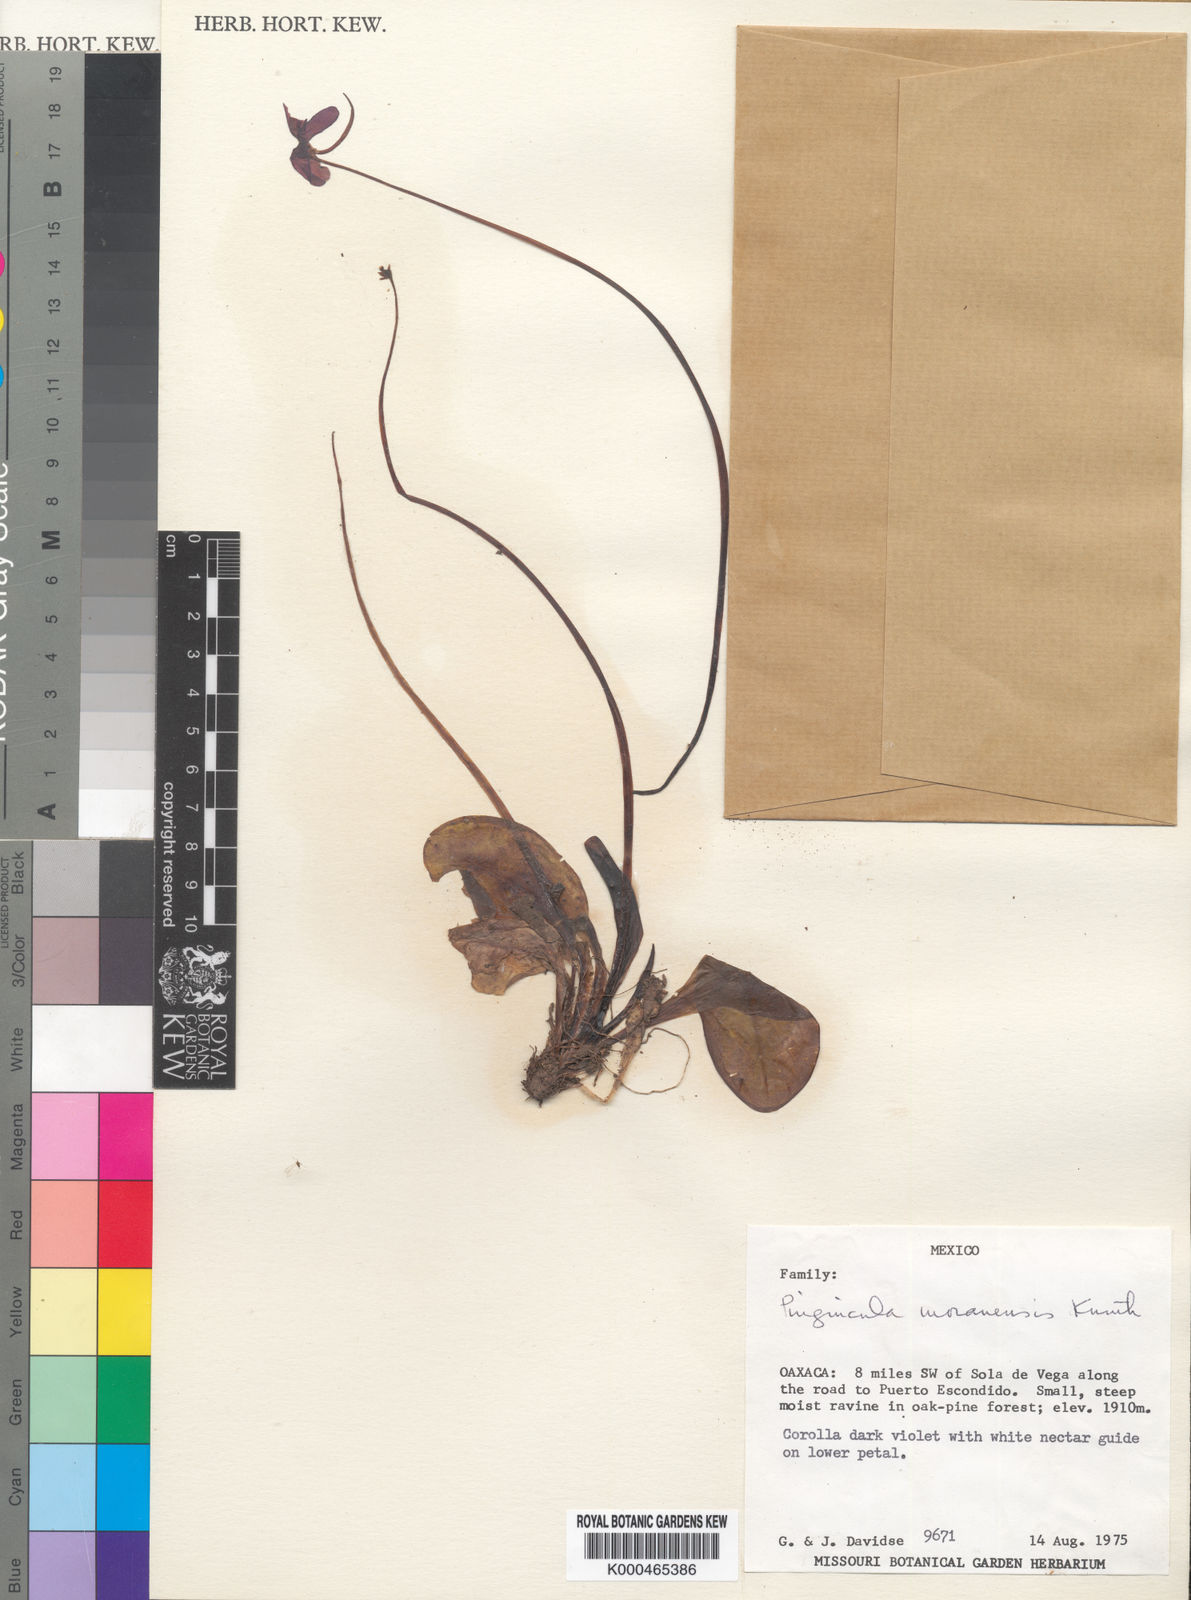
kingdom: Plantae
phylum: Tracheophyta
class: Magnoliopsida
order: Lamiales
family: Lentibulariaceae
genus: Pinguicula
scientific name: Pinguicula moranensis
